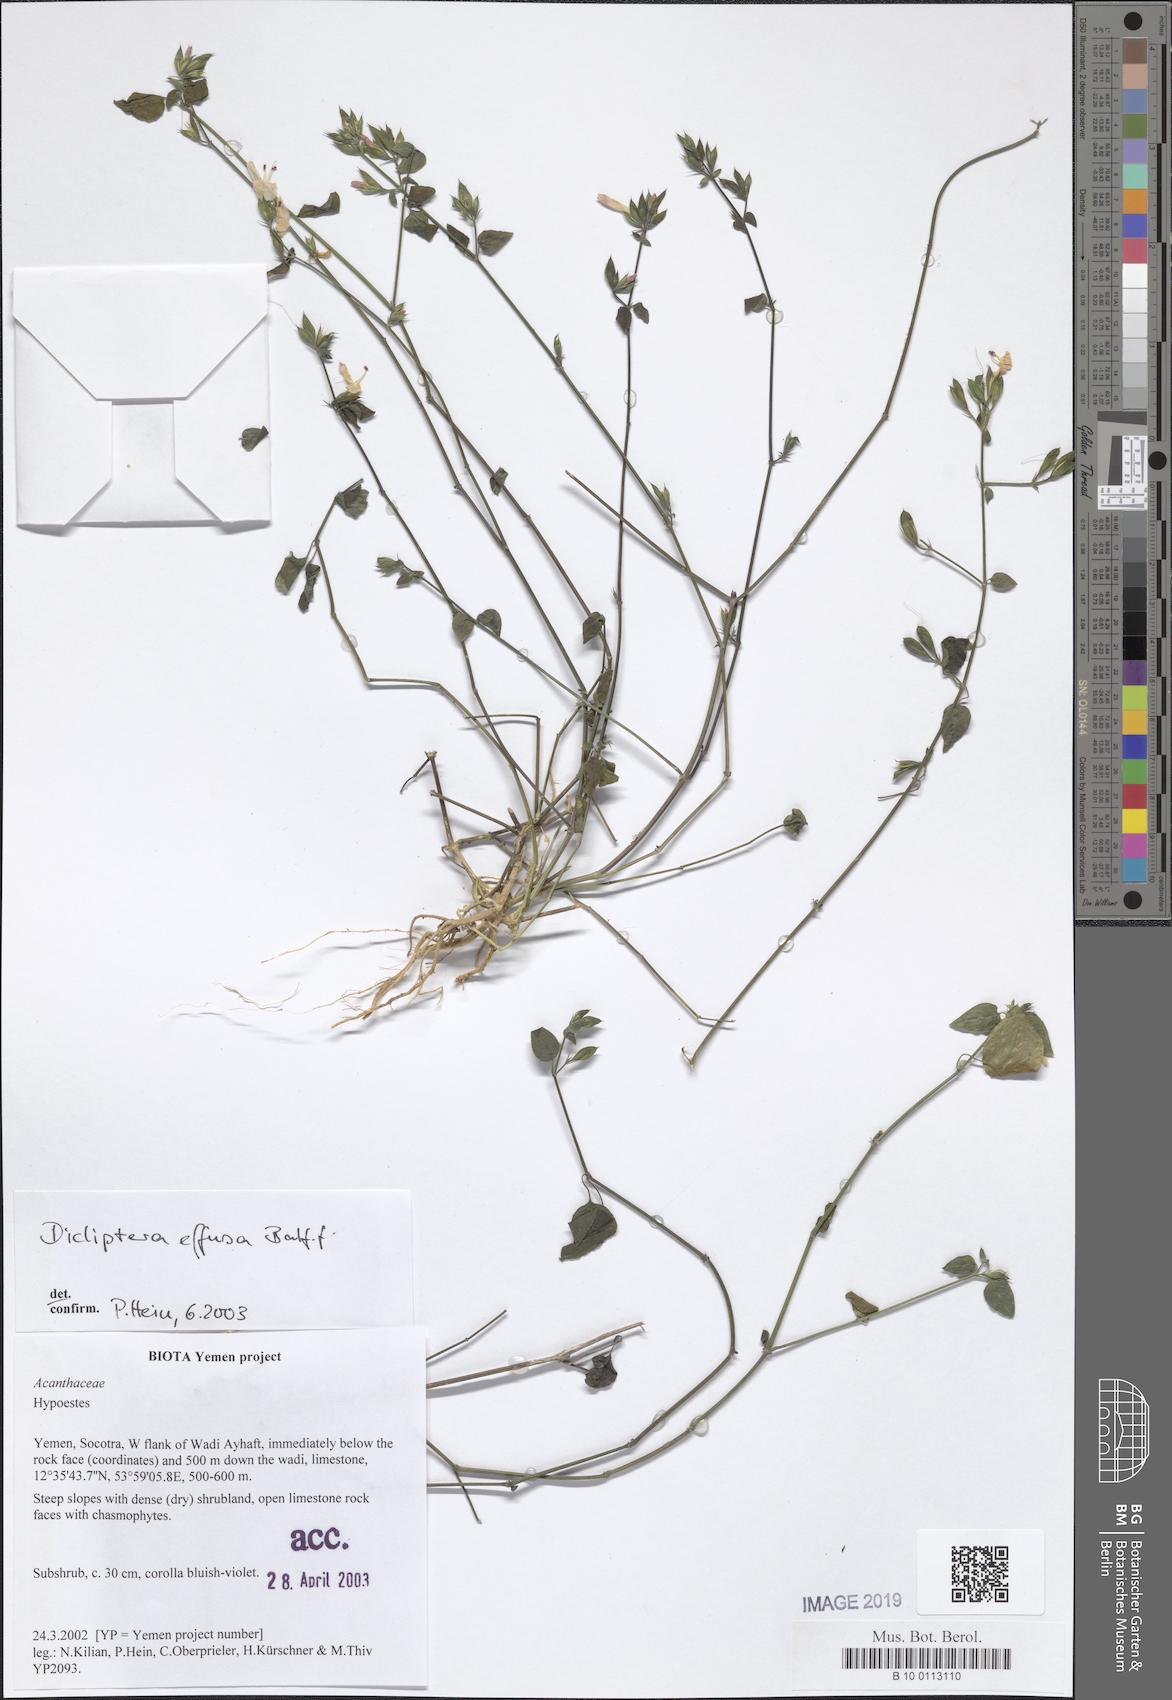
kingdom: Plantae
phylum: Tracheophyta
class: Magnoliopsida
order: Lamiales
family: Acanthaceae
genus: Dicliptera
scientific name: Dicliptera effusa
